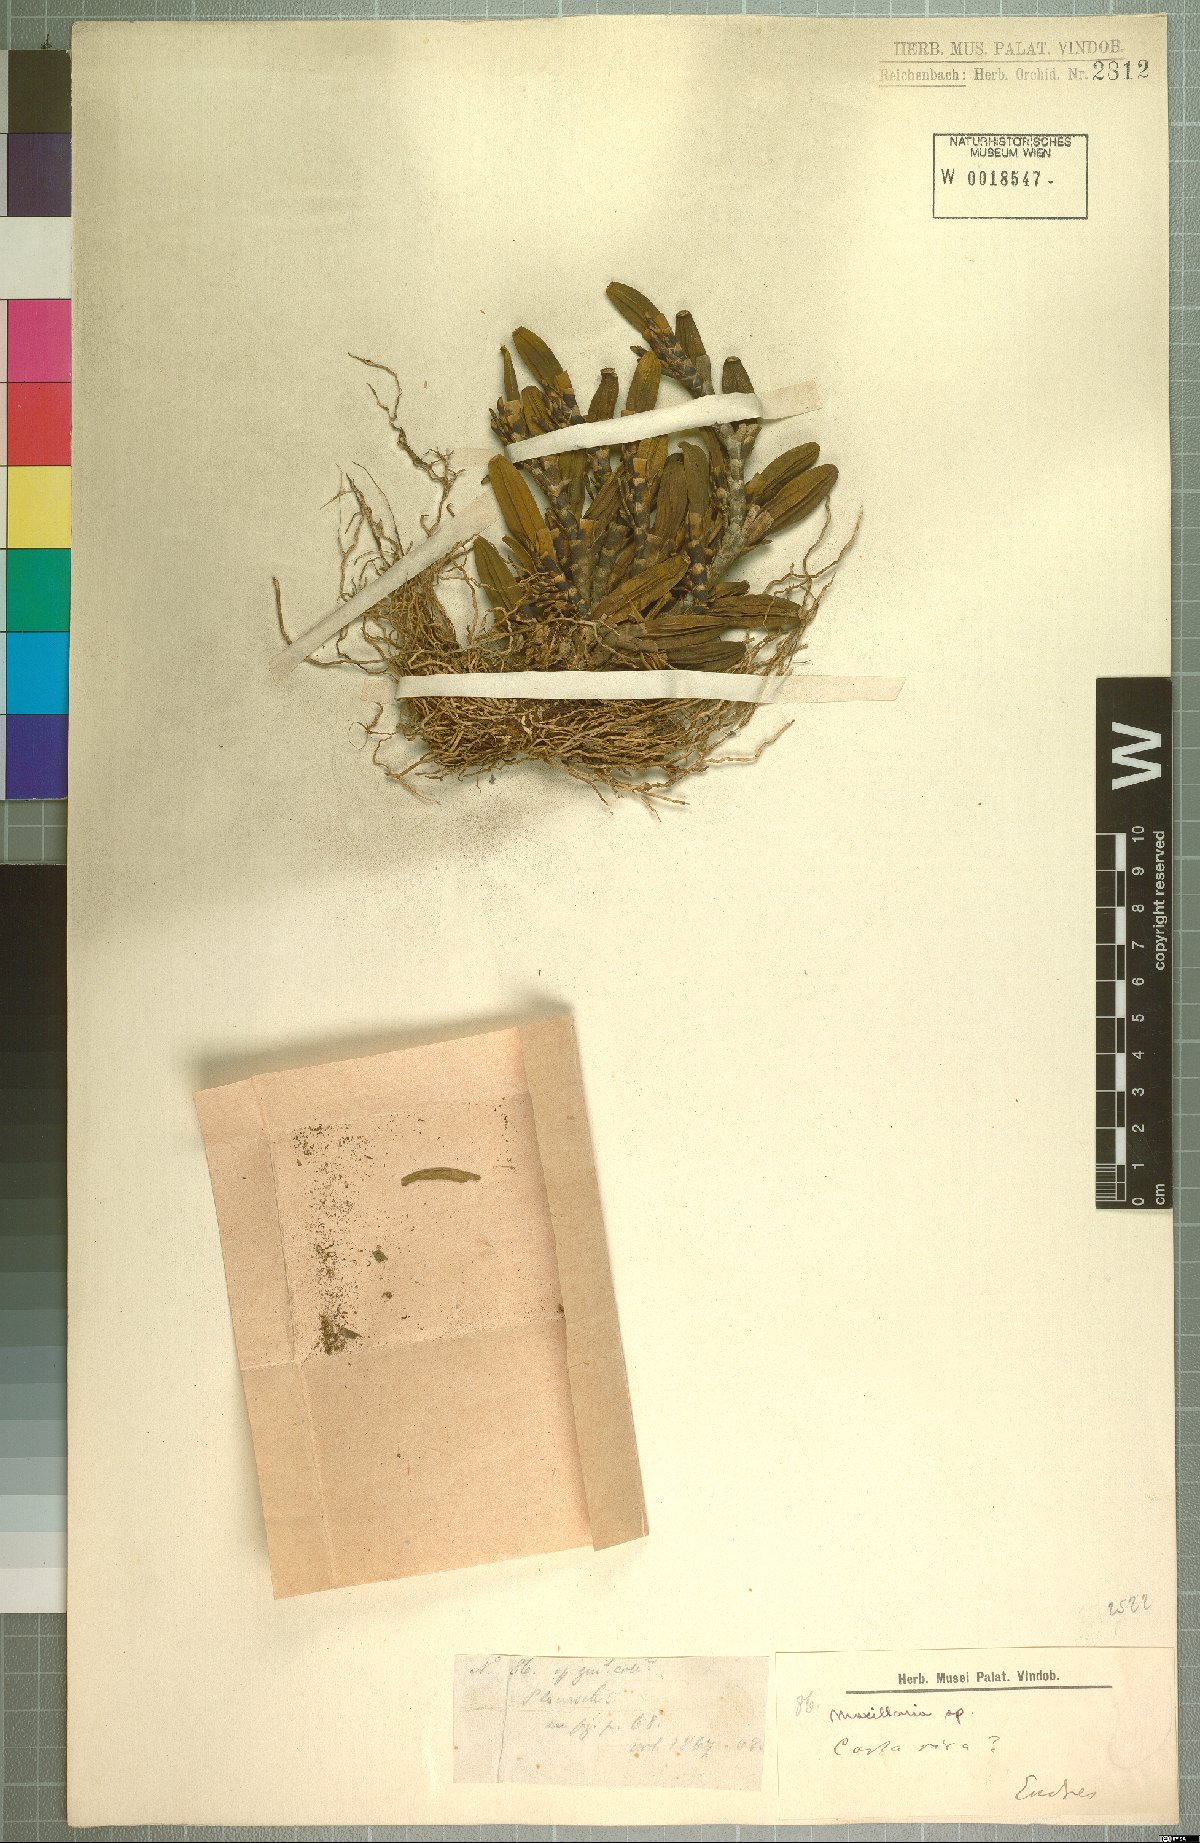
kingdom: Plantae
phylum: Tracheophyta
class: Liliopsida
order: Asparagales
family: Orchidaceae
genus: Maxillaria
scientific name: Maxillaria
